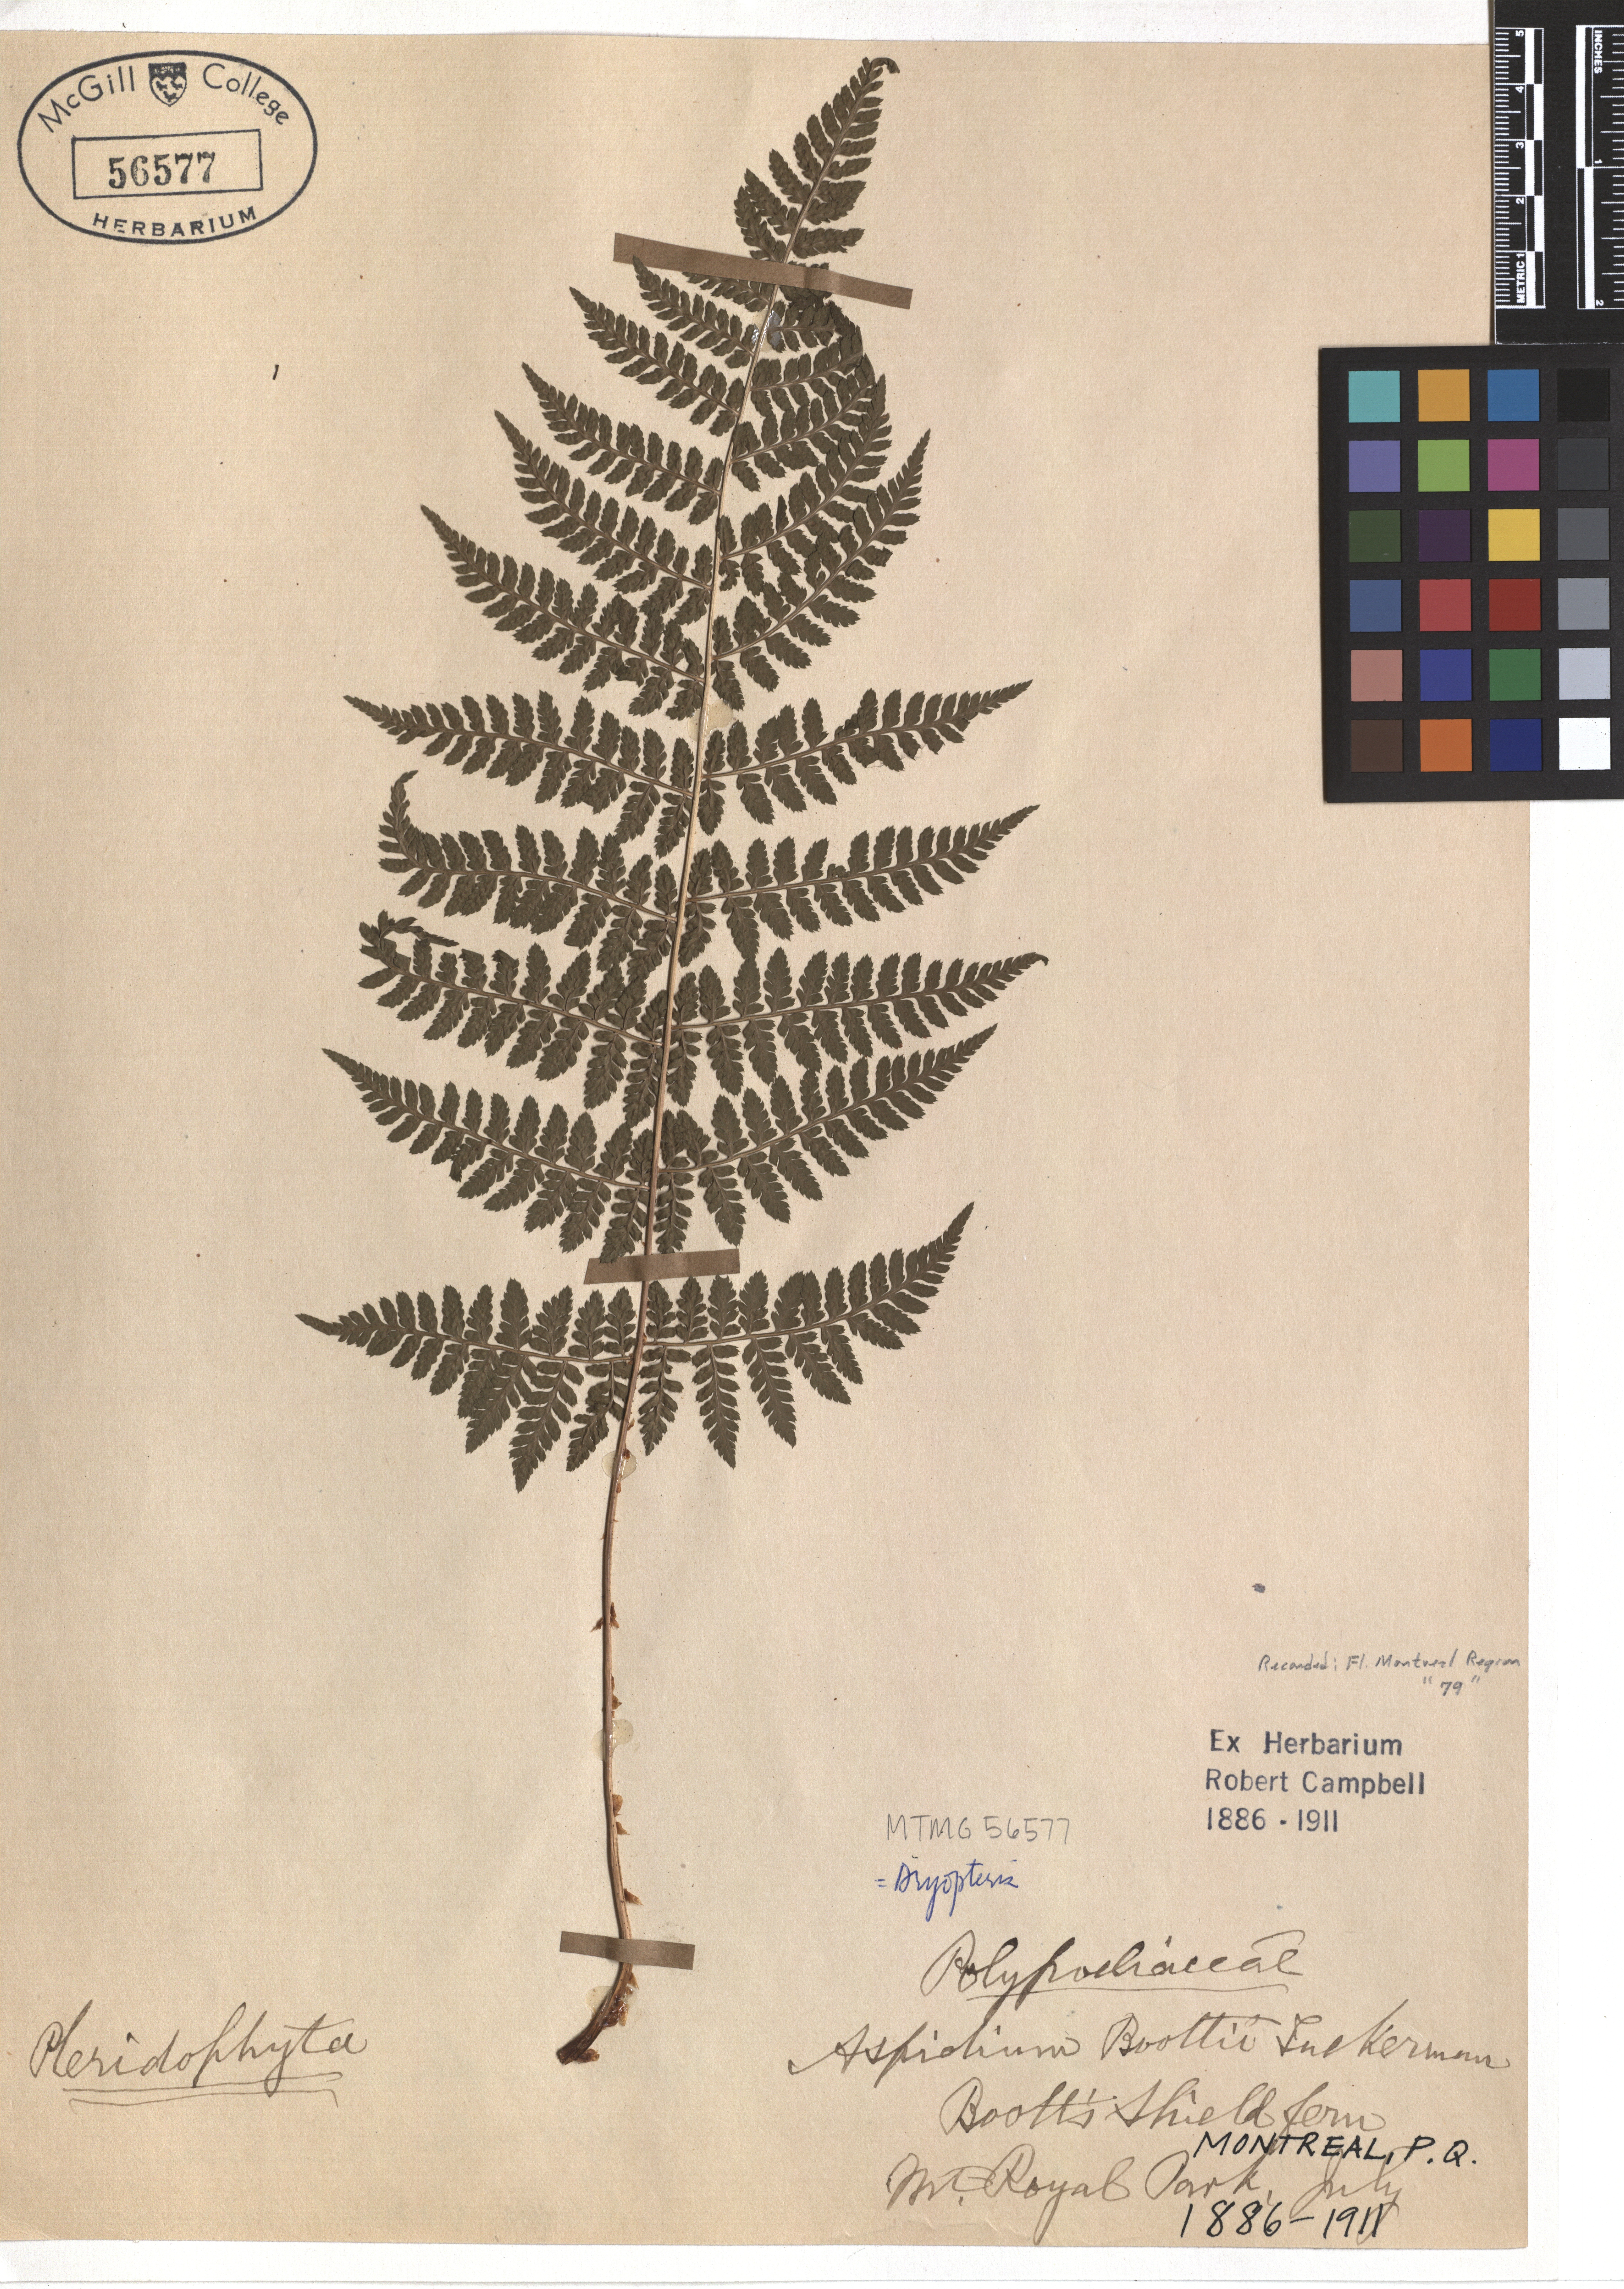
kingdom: Plantae
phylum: Tracheophyta
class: Polypodiopsida
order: Polypodiales
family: Dryopteridaceae
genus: Dryopteris
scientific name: Dryopteris boottii
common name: Boott's fern
